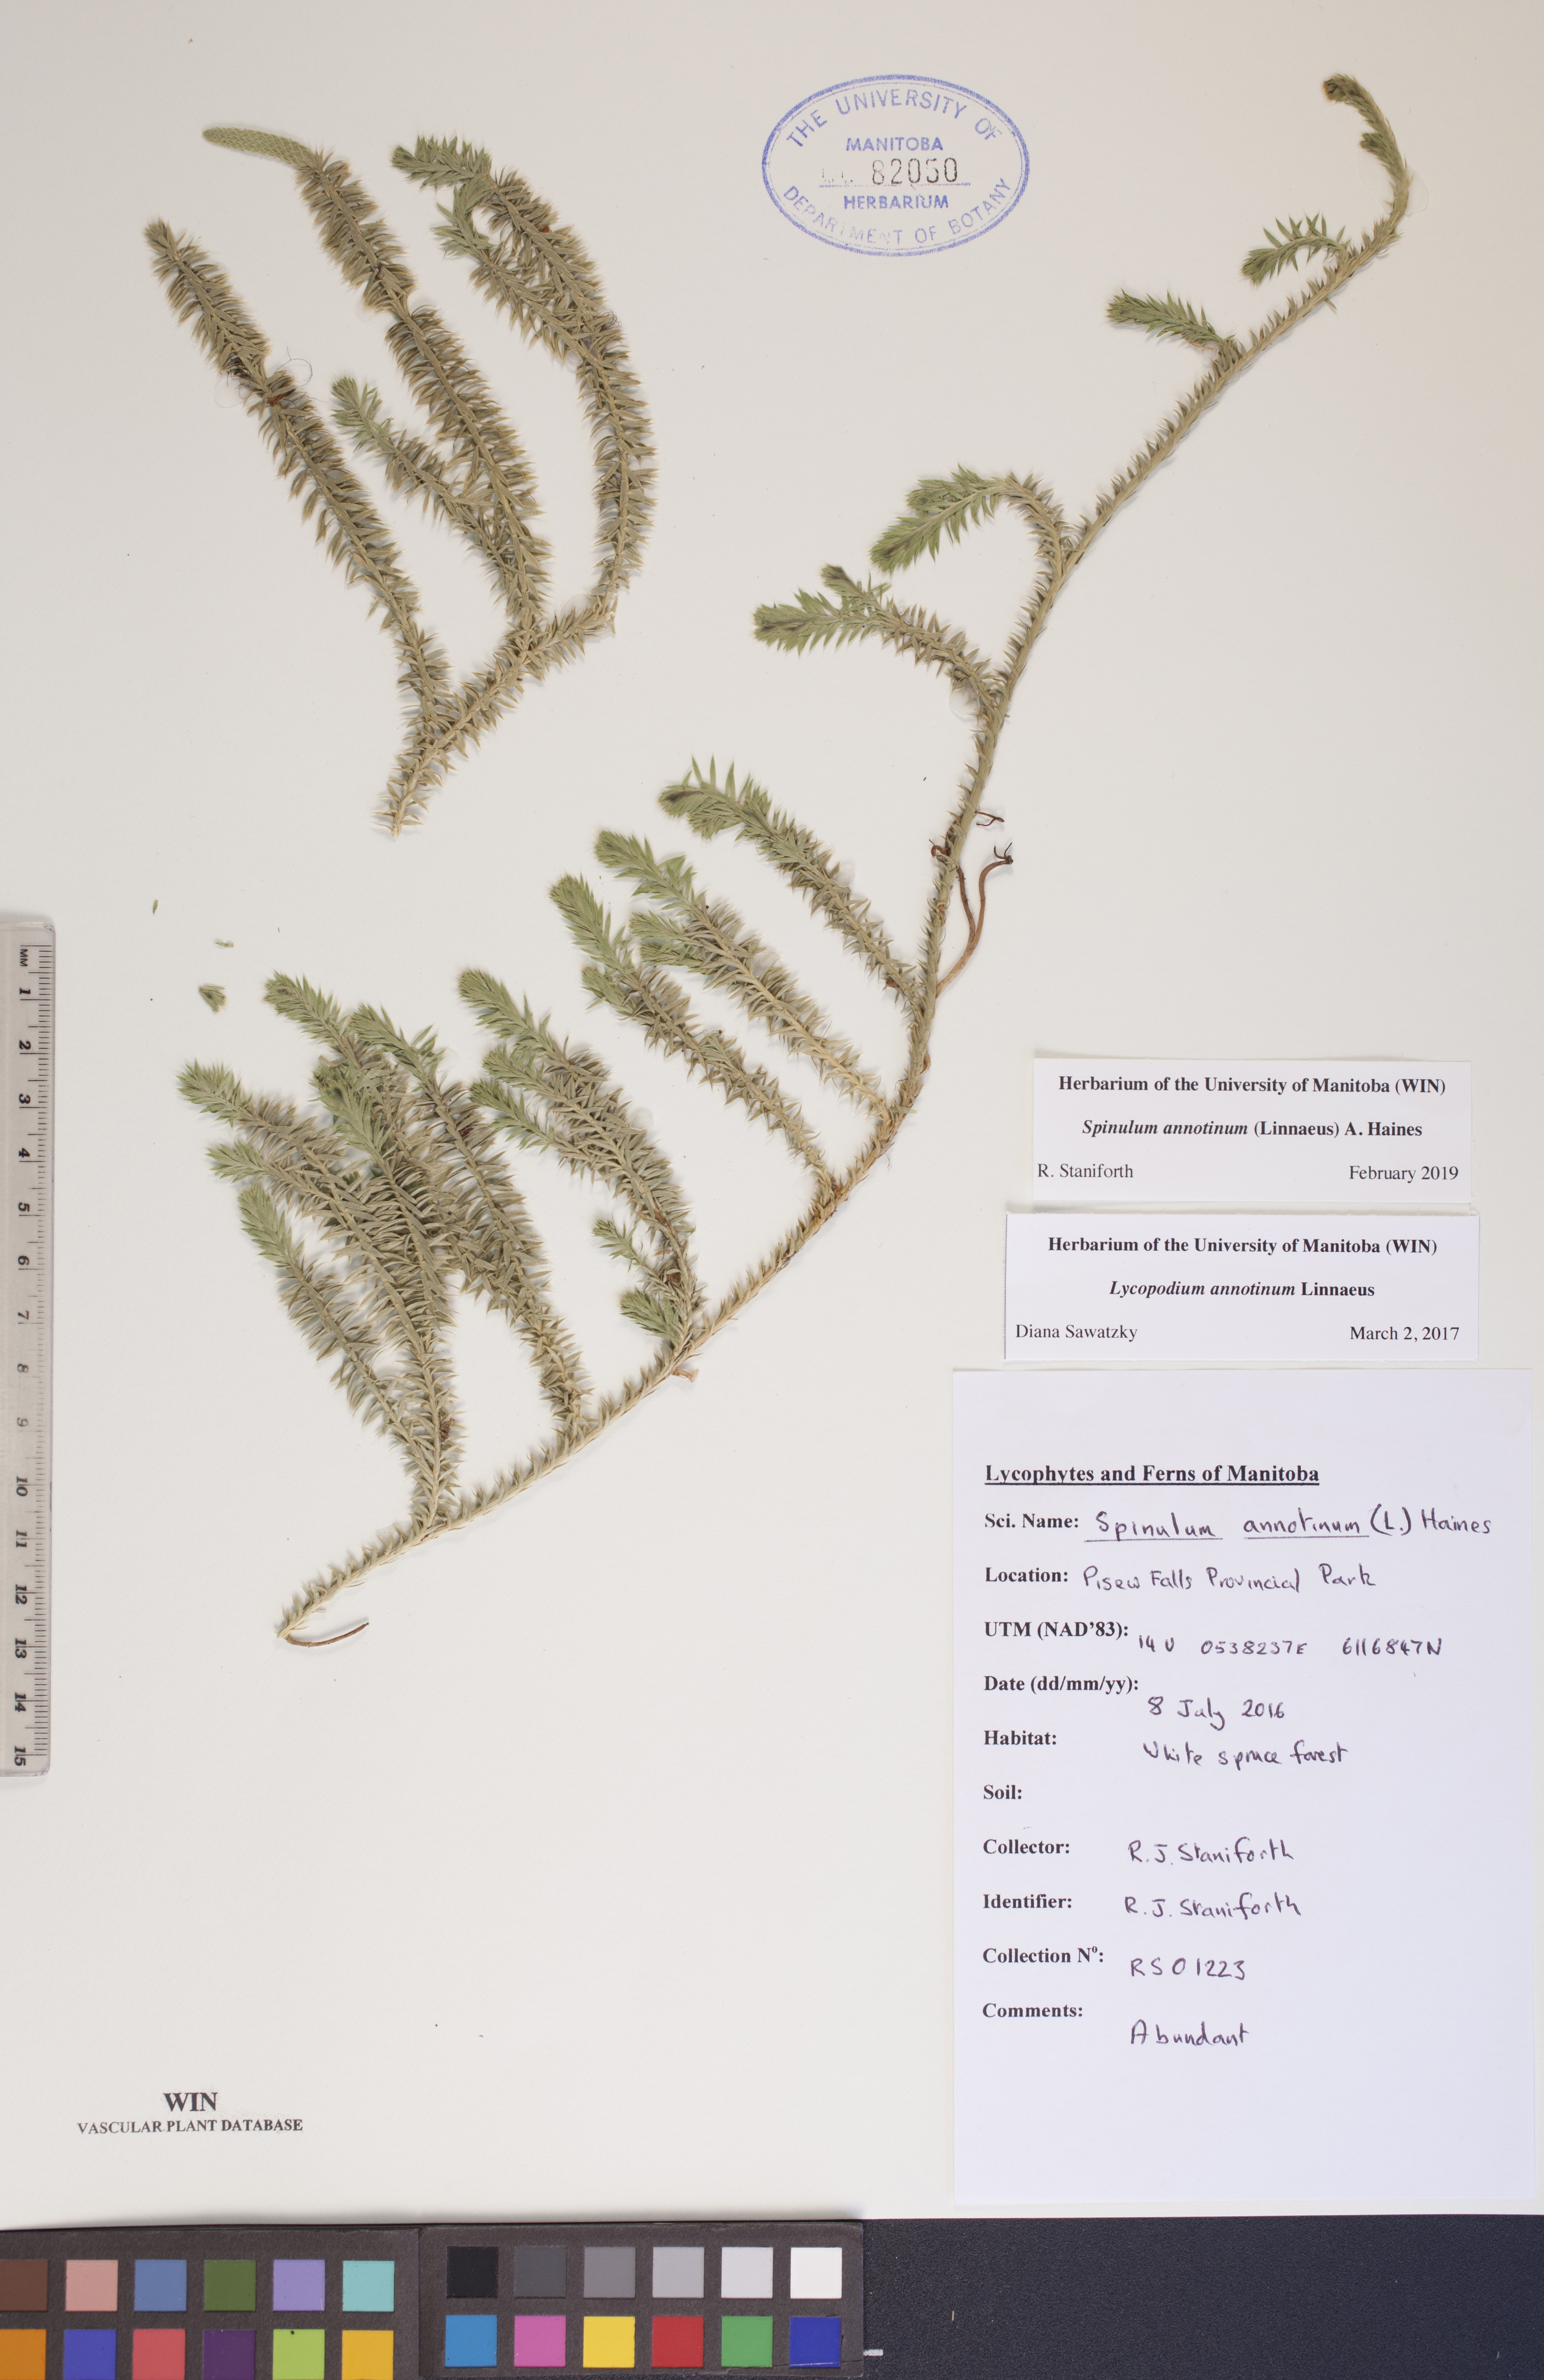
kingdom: Plantae
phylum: Tracheophyta
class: Lycopodiopsida
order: Lycopodiales
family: Lycopodiaceae
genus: Spinulum
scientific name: Spinulum annotinum
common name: Interrupted club-moss
